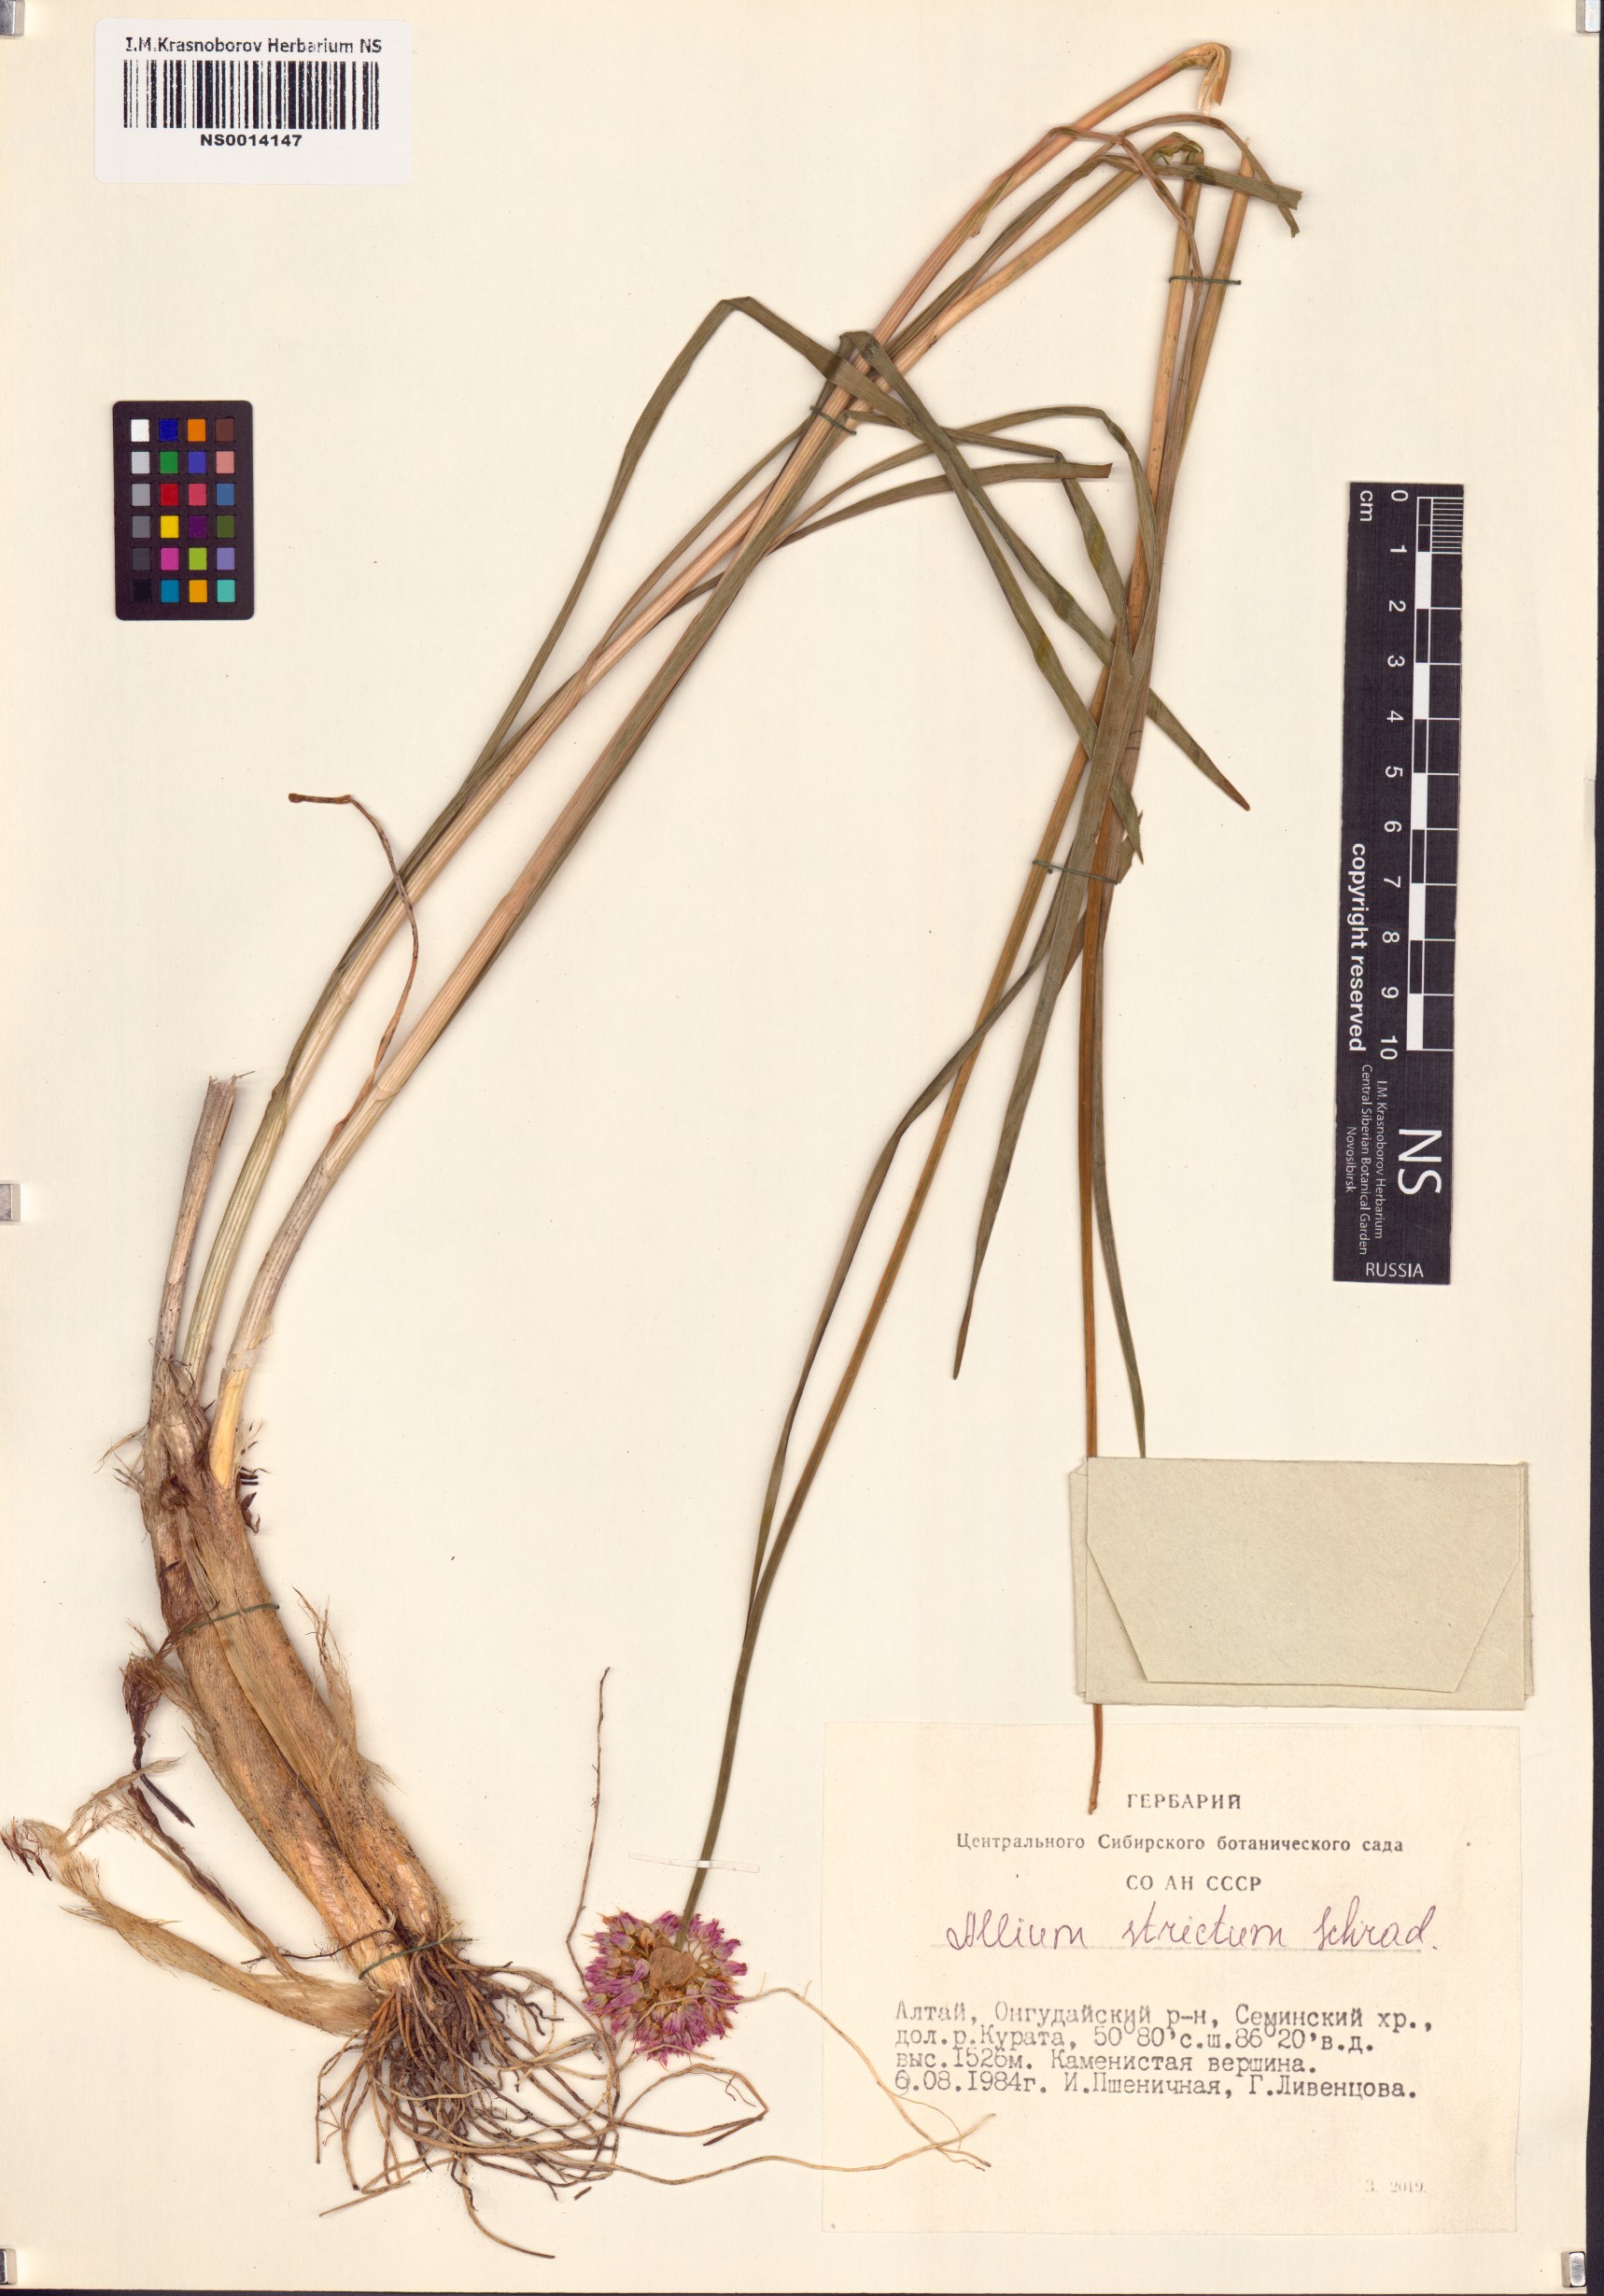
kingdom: Plantae
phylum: Tracheophyta
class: Liliopsida
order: Asparagales
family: Amaryllidaceae
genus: Allium
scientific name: Allium strictum
